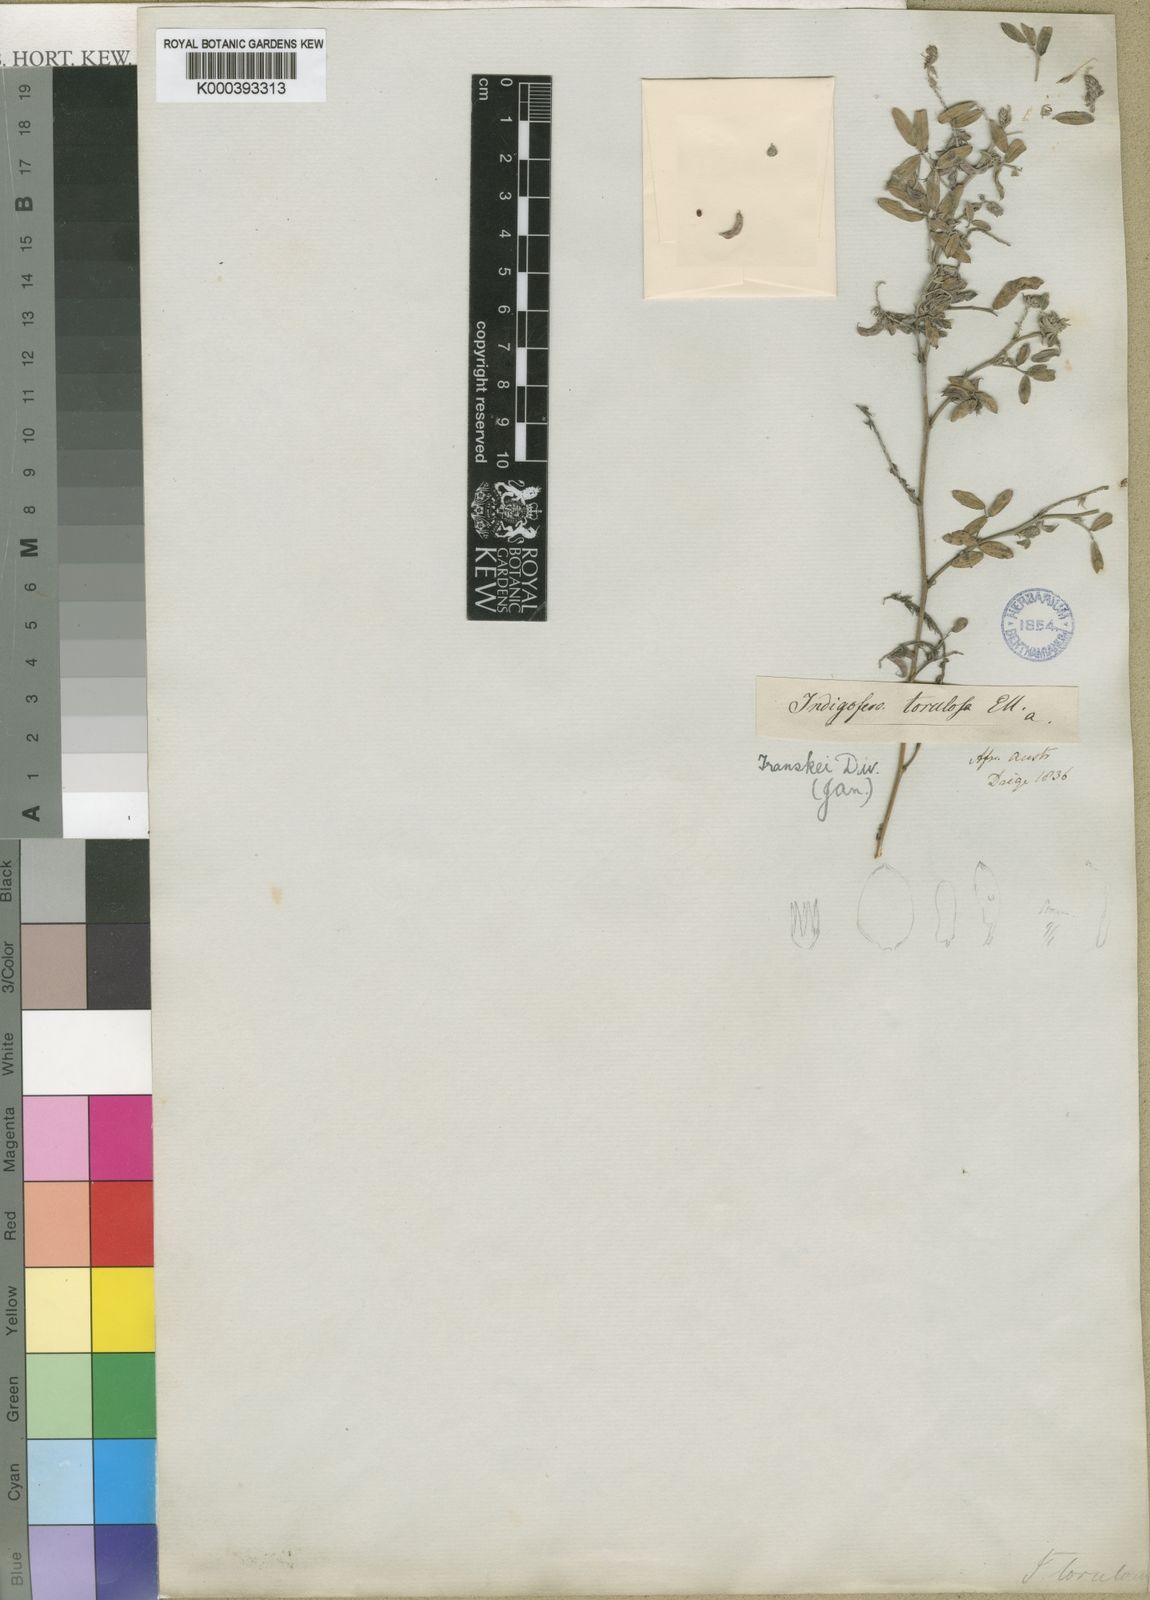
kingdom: Plantae
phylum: Tracheophyta
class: Magnoliopsida
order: Fabales
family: Fabaceae
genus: Indigofera
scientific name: Indigofera torulosa
